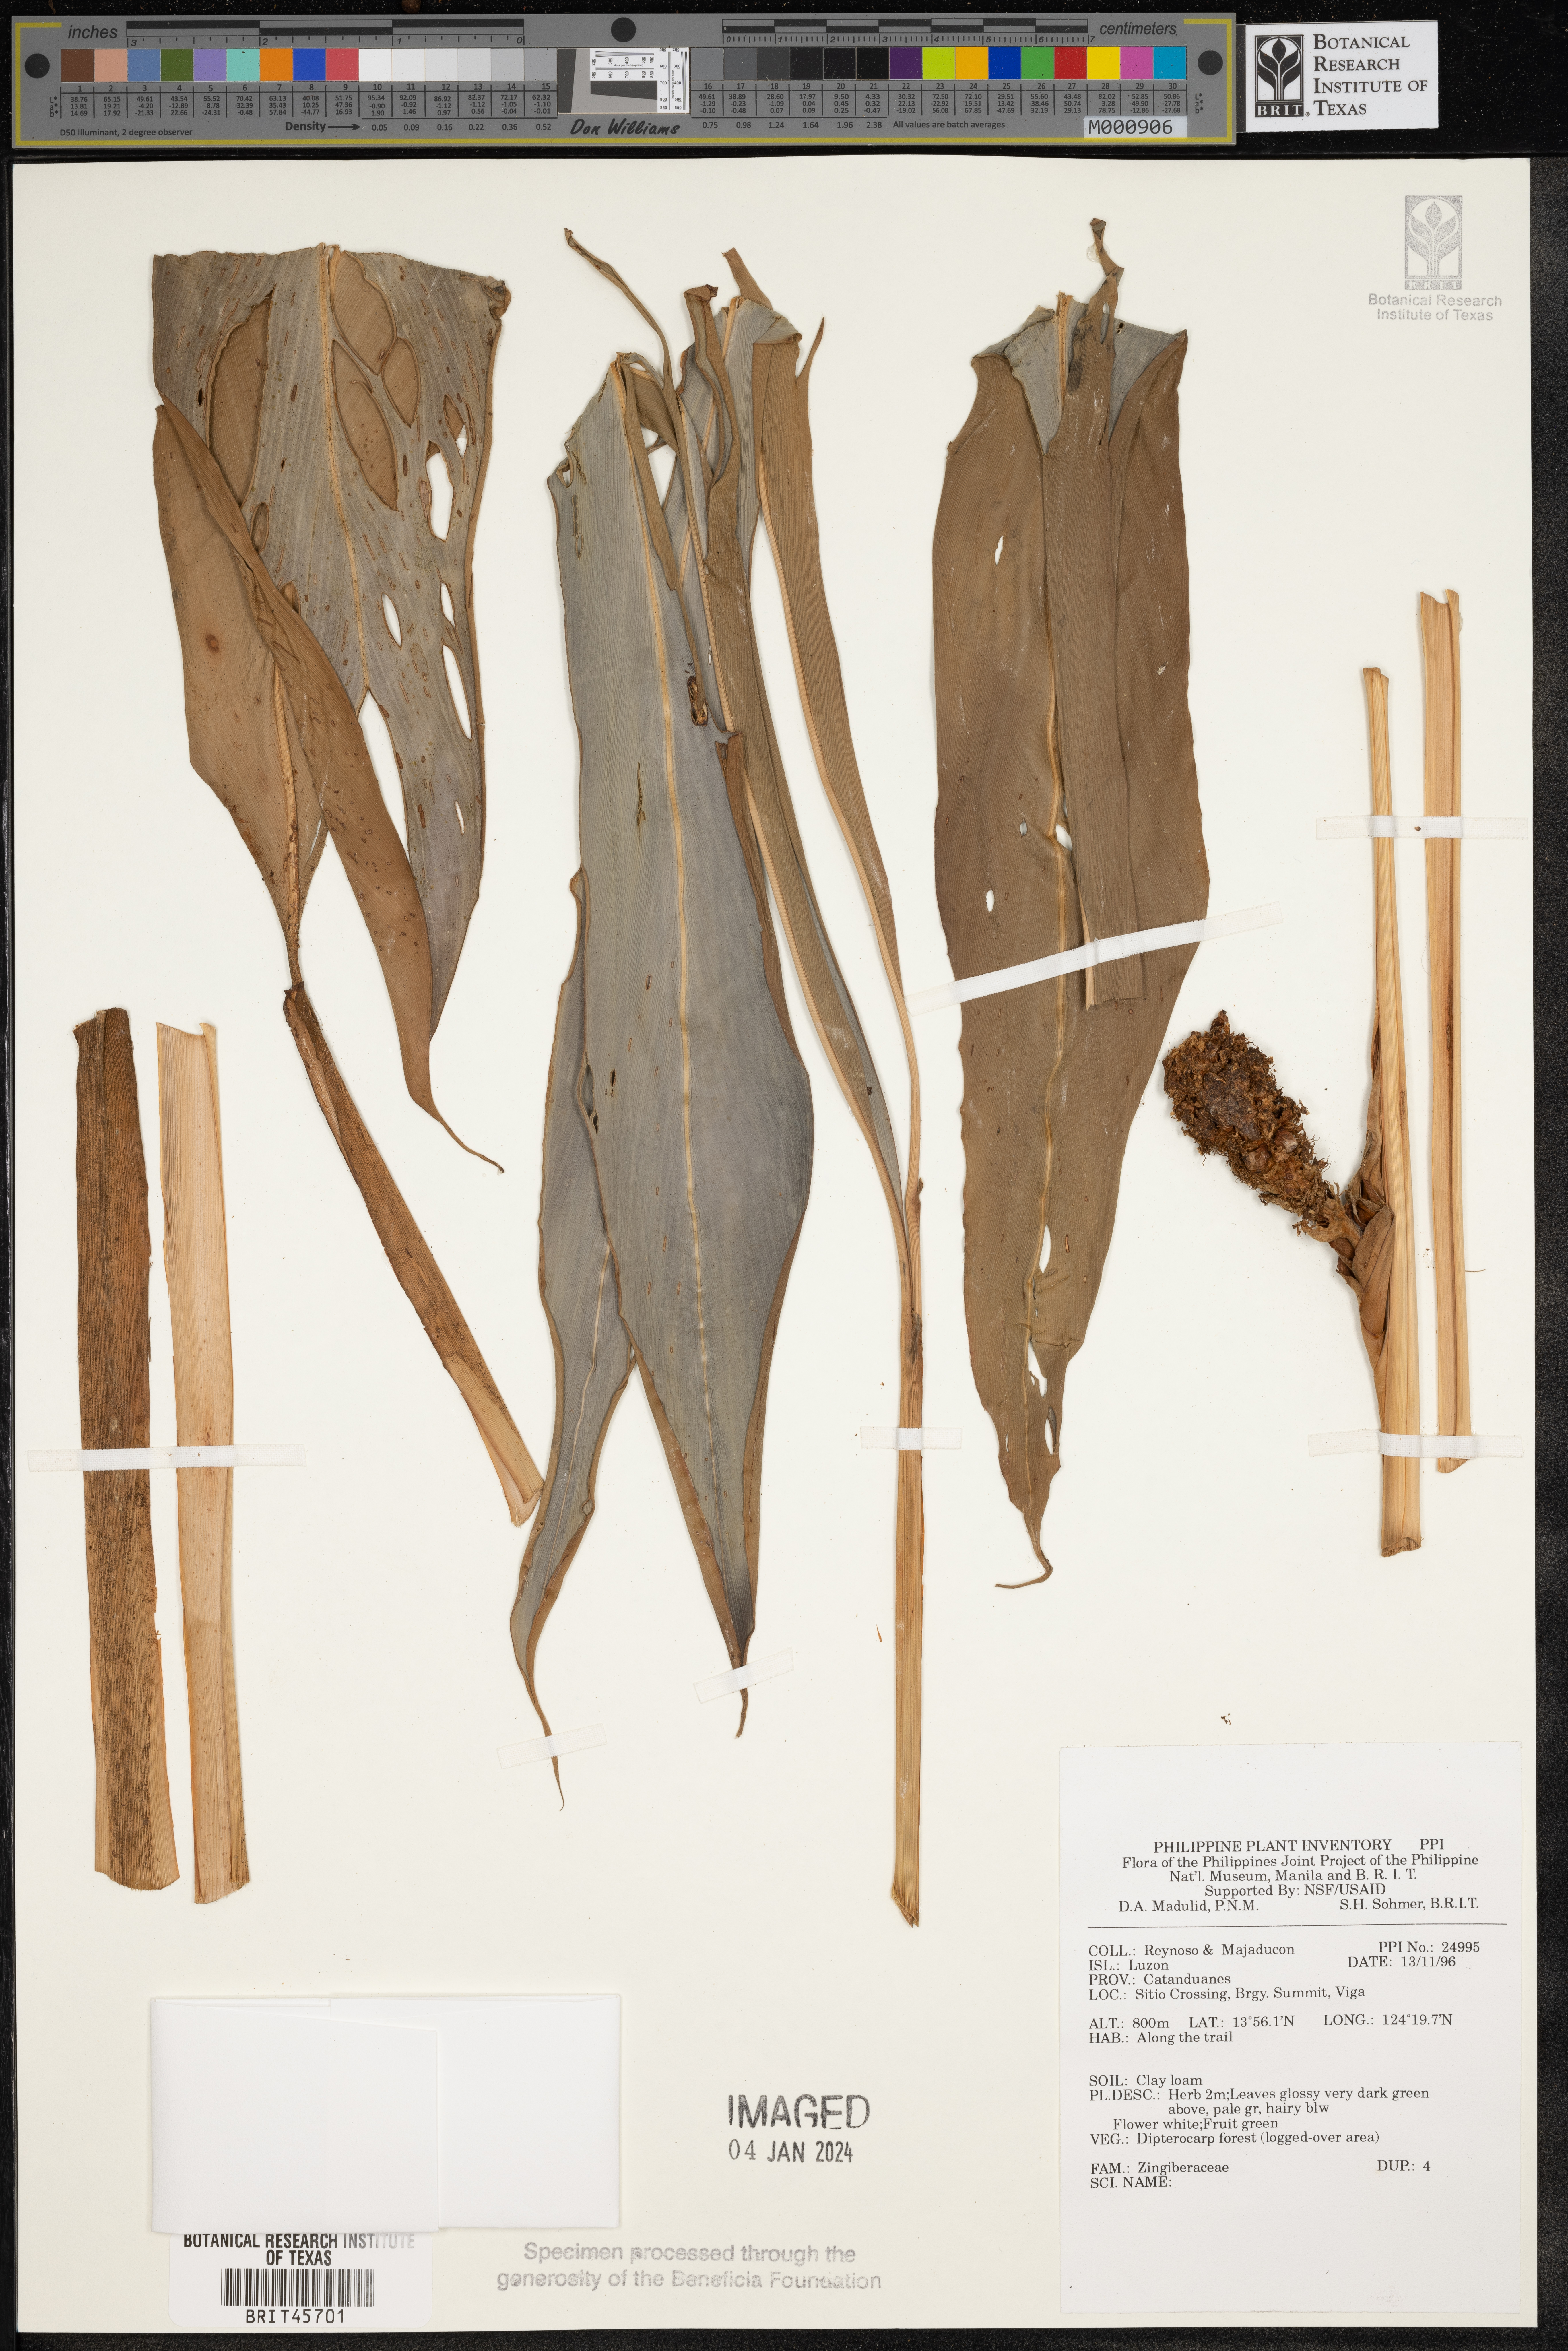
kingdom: Plantae
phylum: Tracheophyta
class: Liliopsida
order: Zingiberales
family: Zingiberaceae
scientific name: Zingiberaceae
